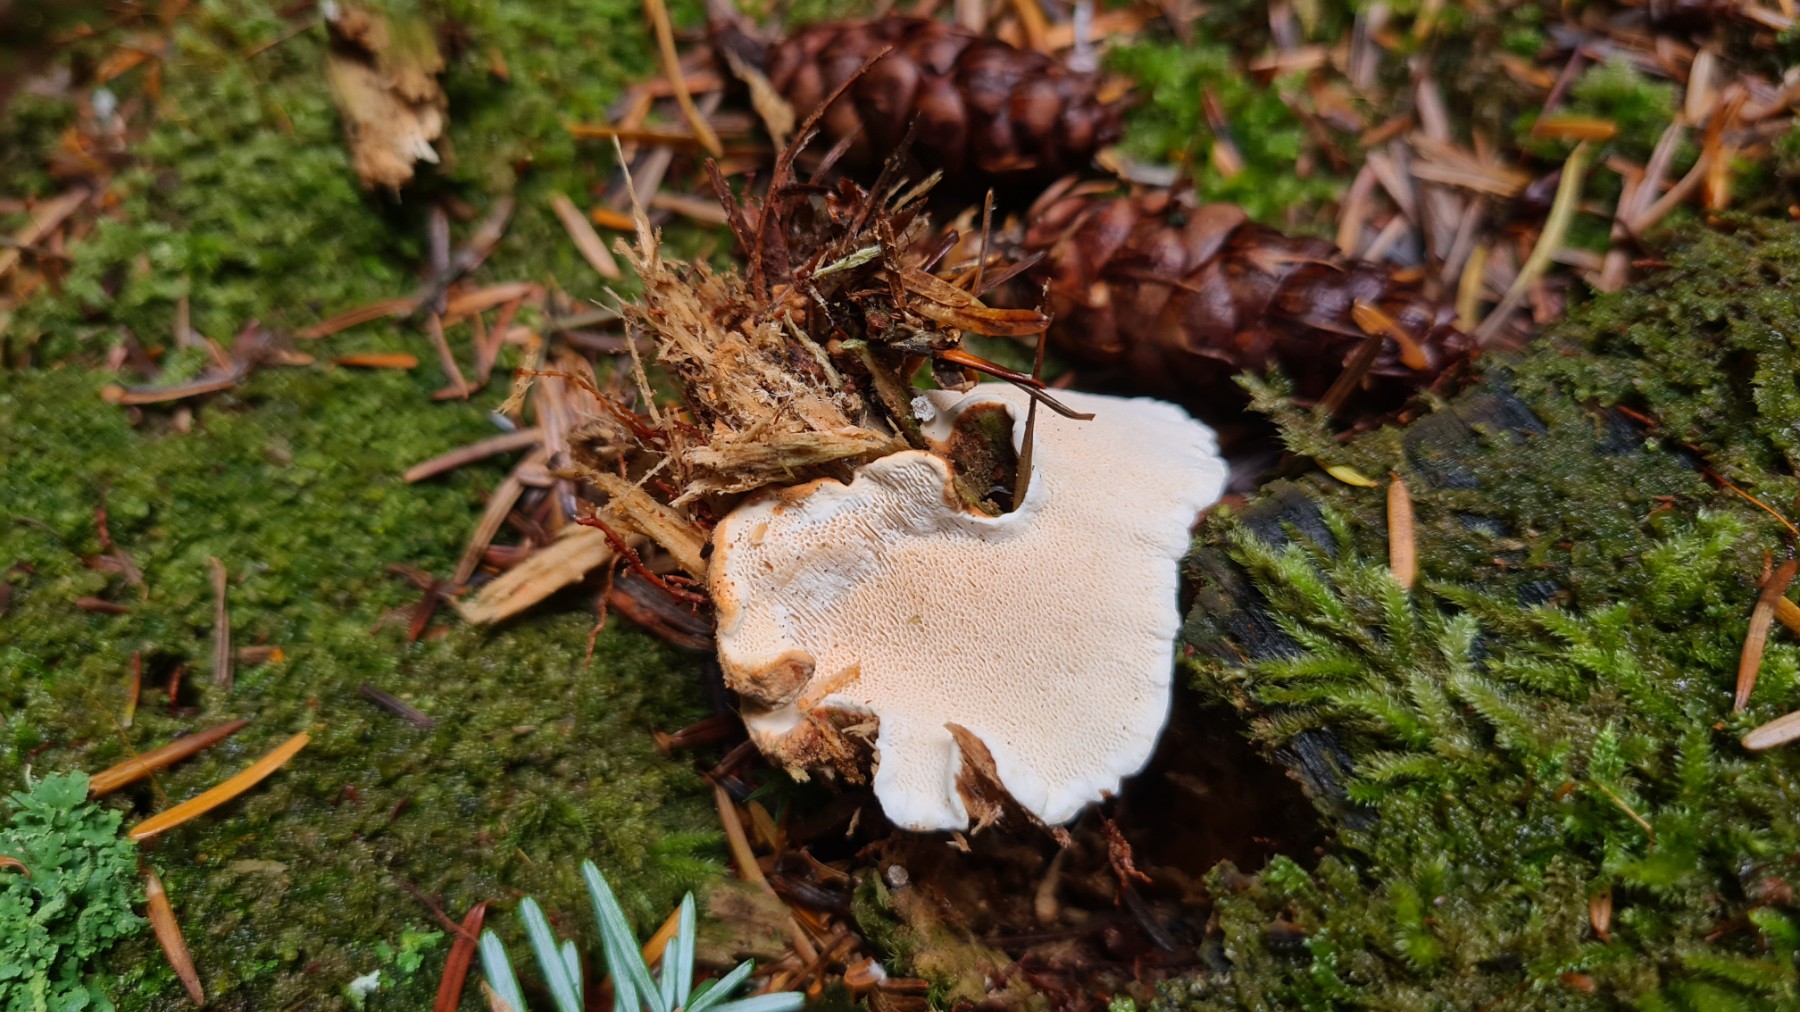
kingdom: Fungi
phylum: Basidiomycota
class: Agaricomycetes
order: Russulales
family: Bondarzewiaceae
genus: Heterobasidion
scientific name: Heterobasidion annosum
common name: almindelig rodfordærver
